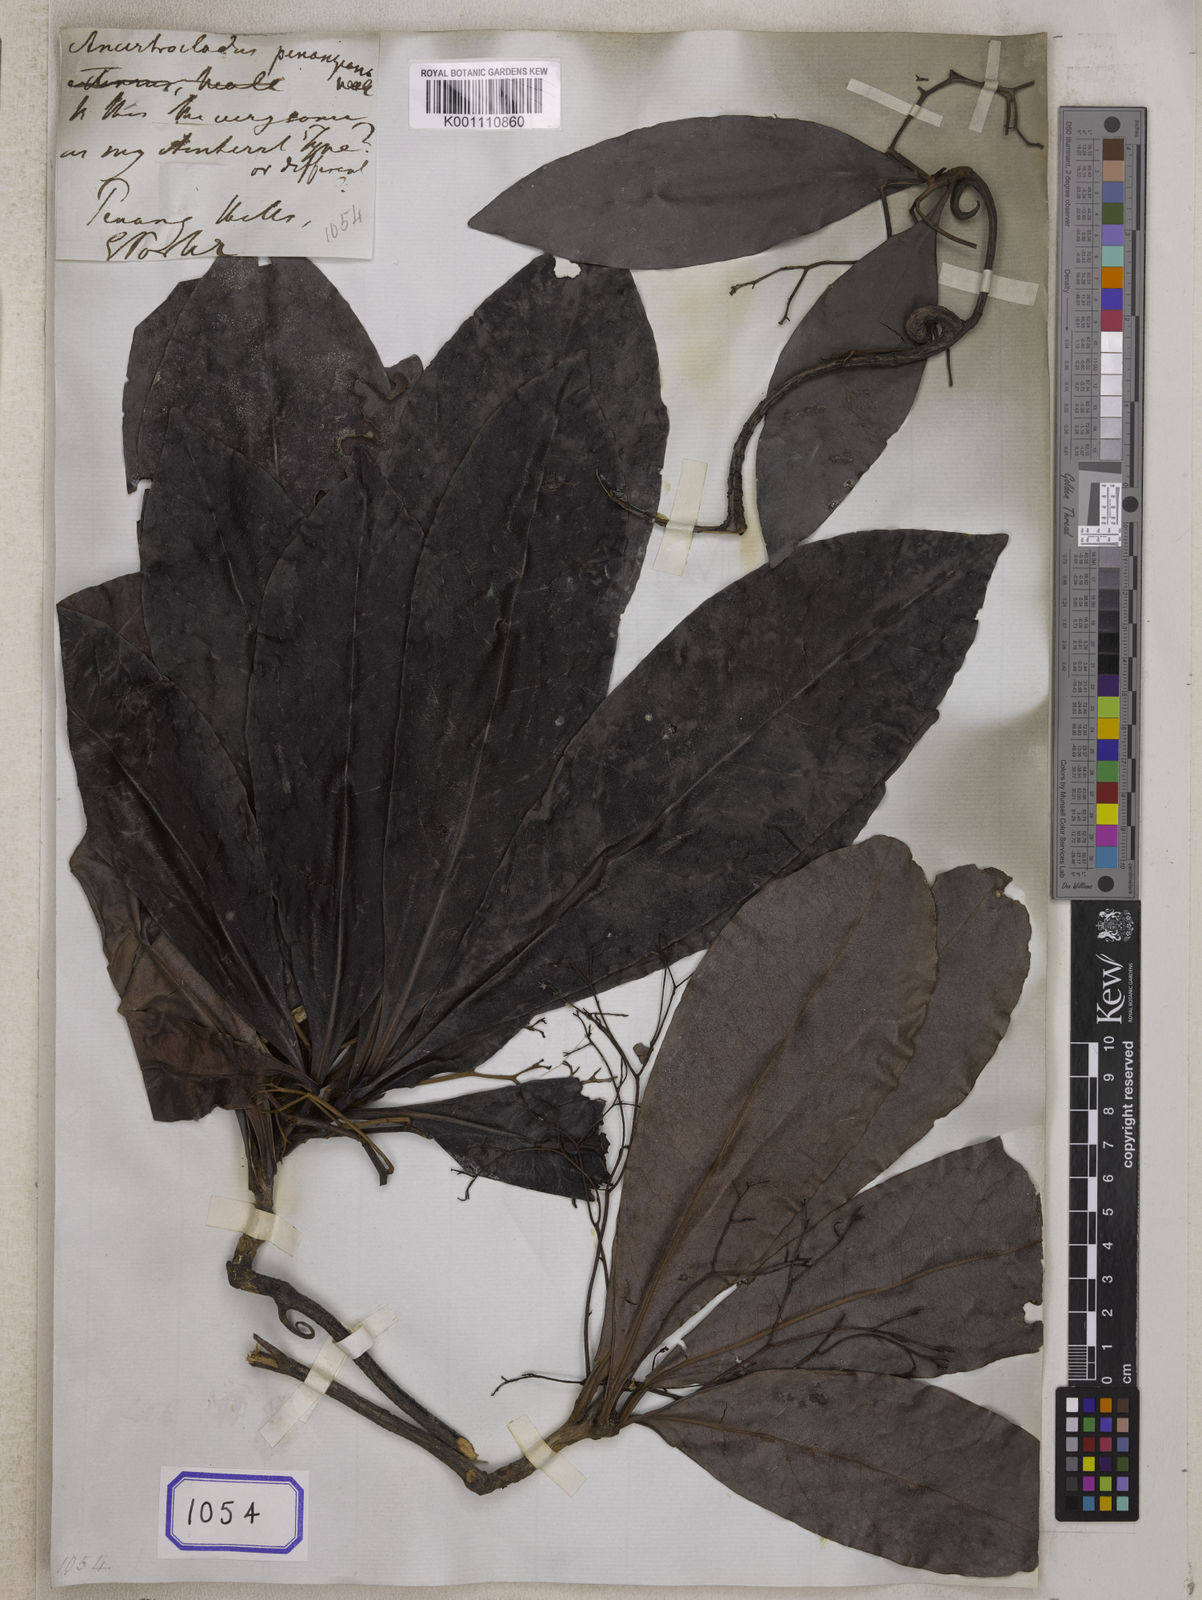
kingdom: Plantae
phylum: Tracheophyta
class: Magnoliopsida
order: Caryophyllales
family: Ancistrocladaceae
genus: Ancistrocladus
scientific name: Ancistrocladus
